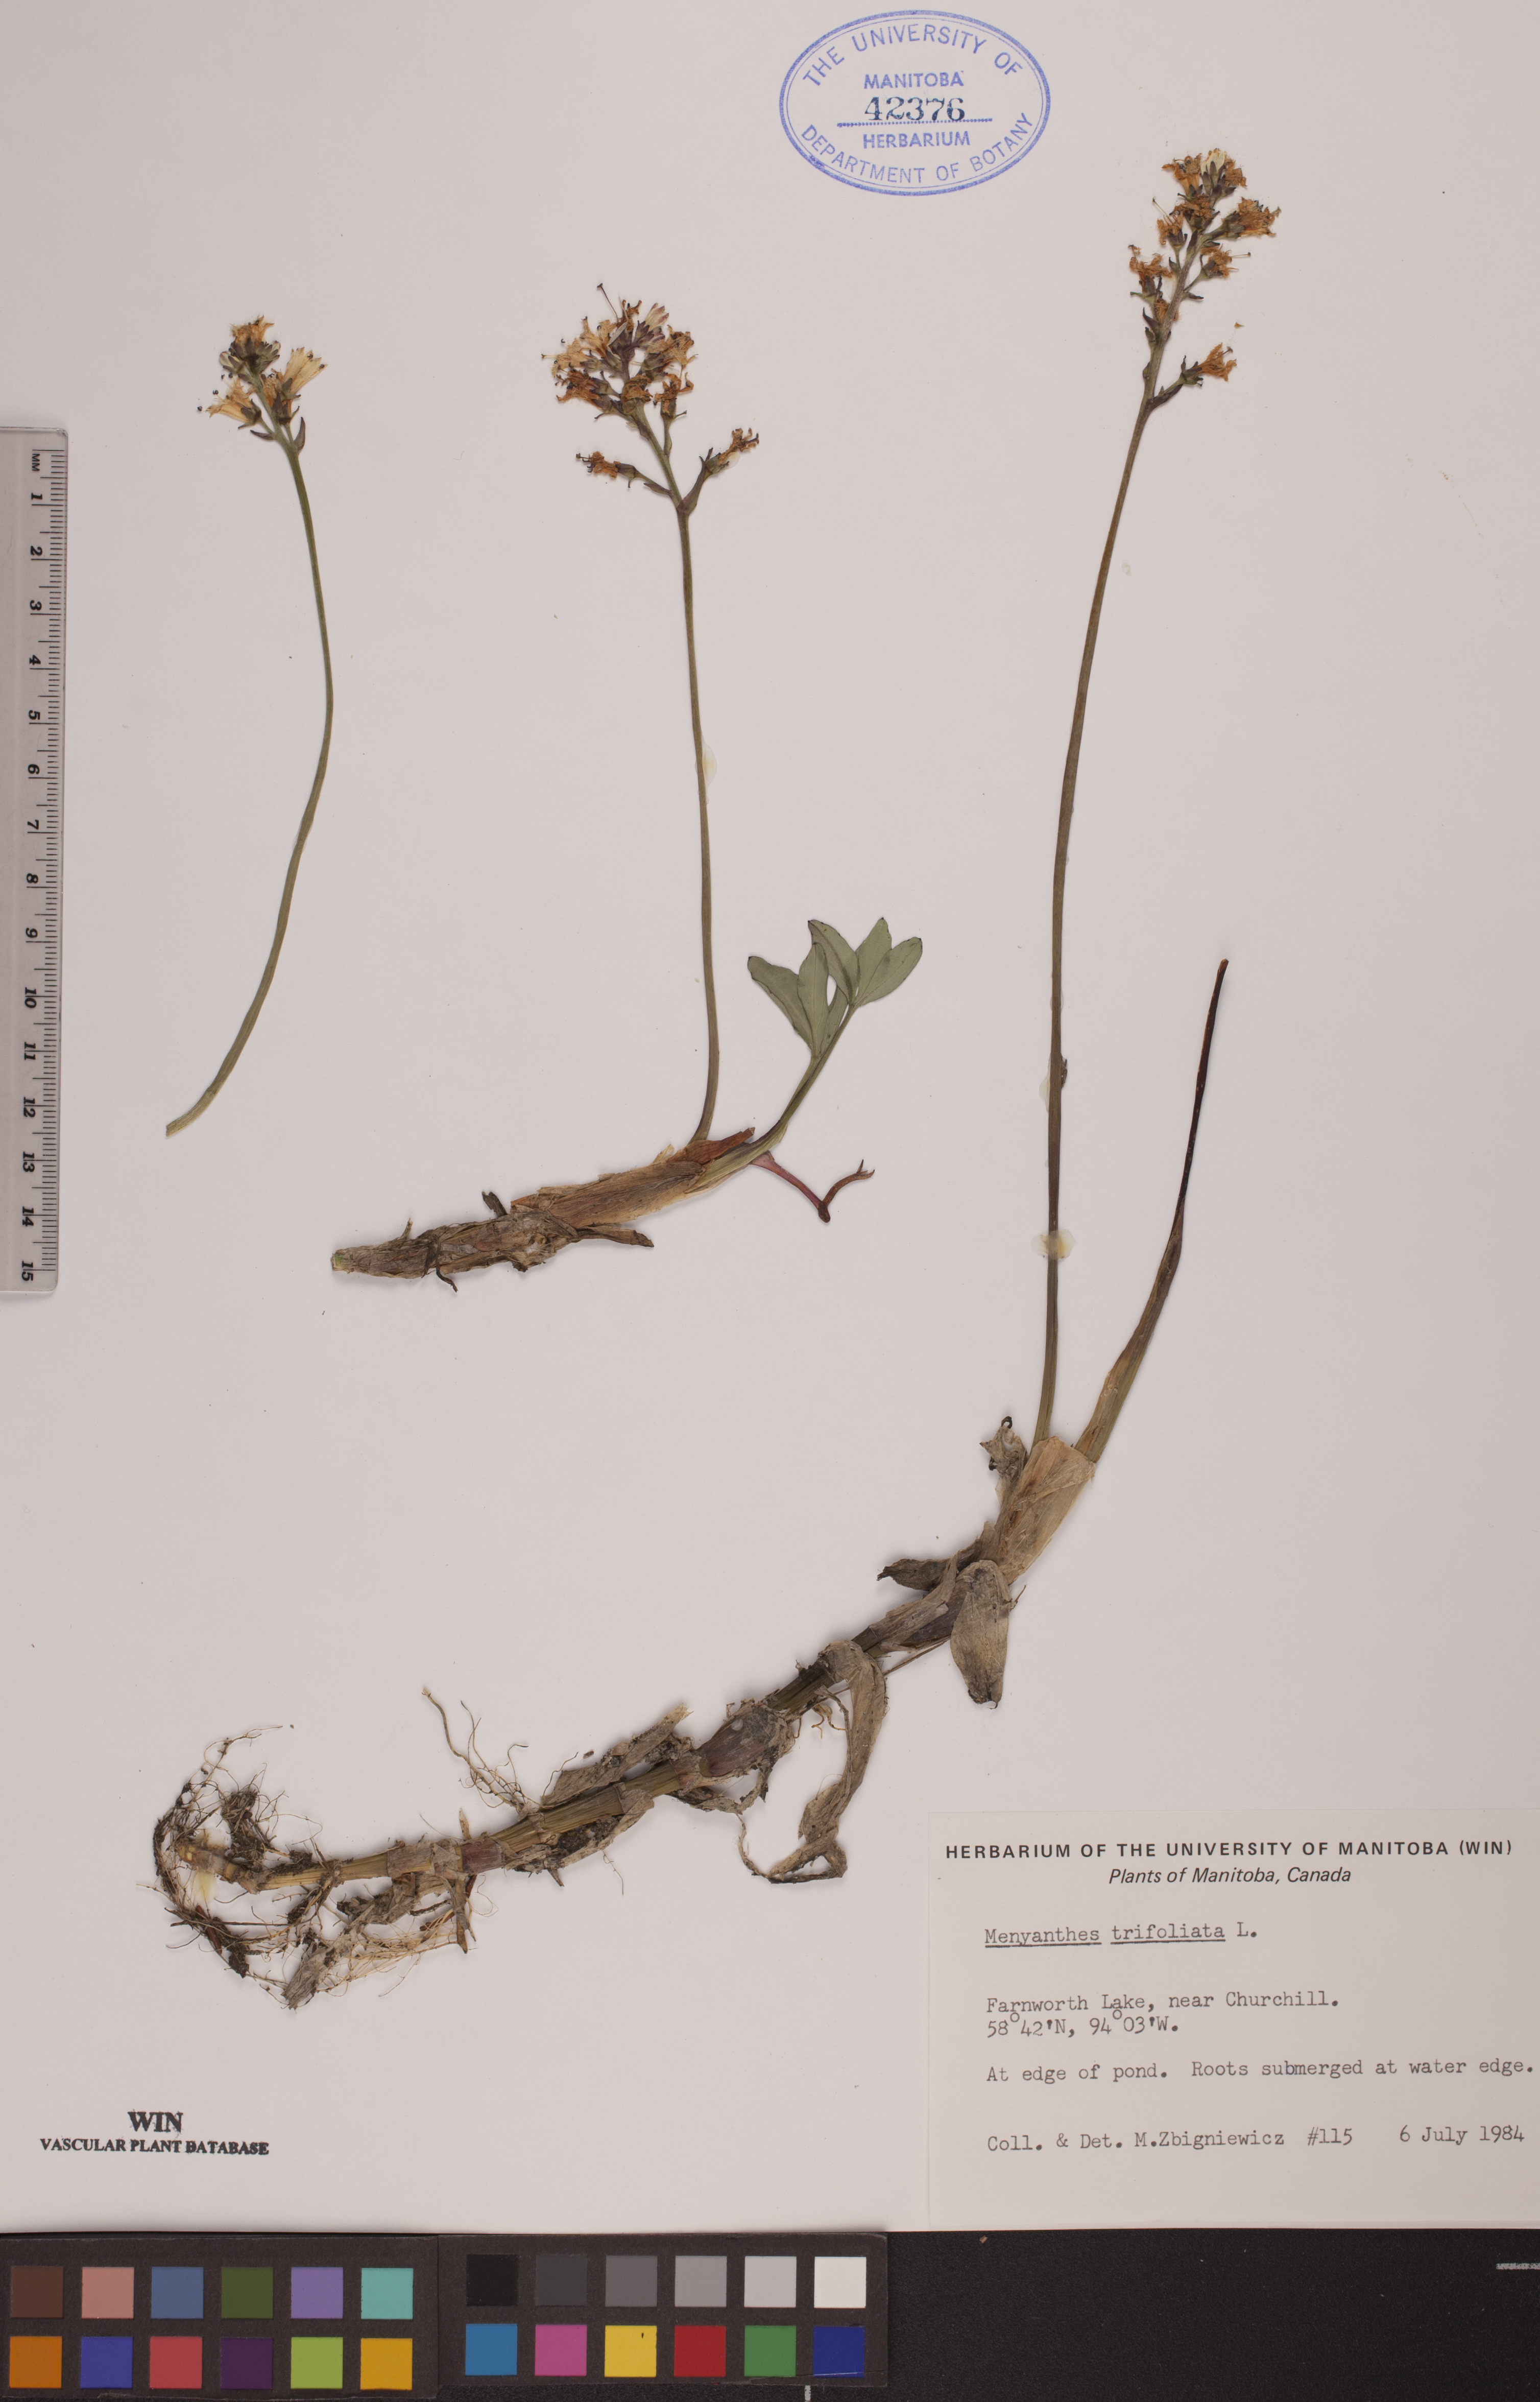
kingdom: Plantae
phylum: Tracheophyta
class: Magnoliopsida
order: Asterales
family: Menyanthaceae
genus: Menyanthes
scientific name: Menyanthes trifoliata
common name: Bogbean
